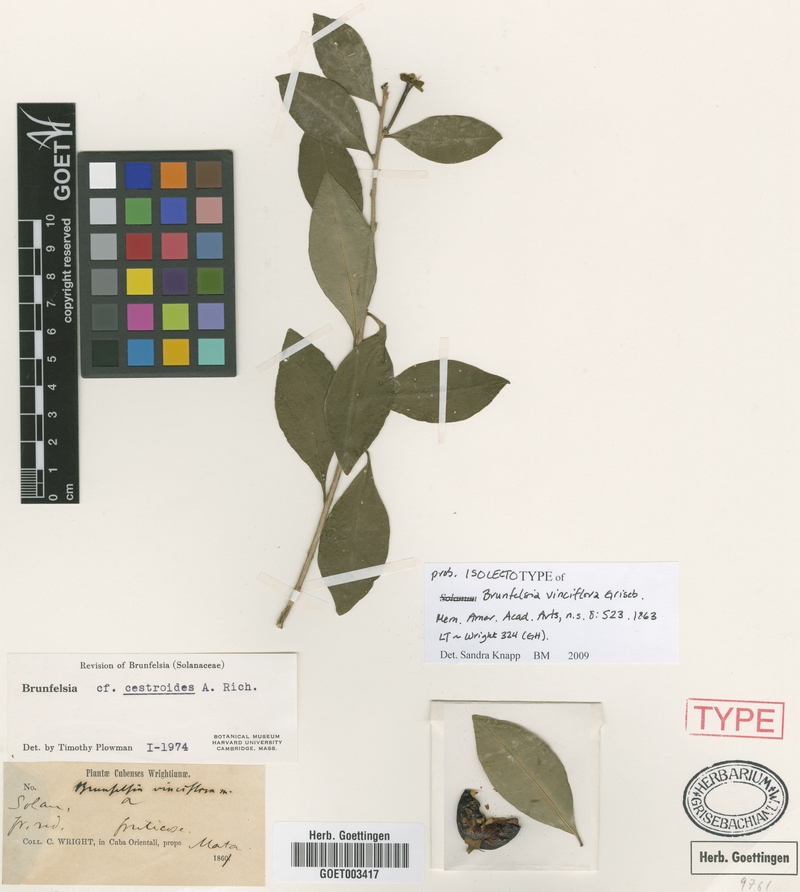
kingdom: Plantae
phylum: Tracheophyta
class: Magnoliopsida
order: Solanales
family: Solanaceae
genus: Brunfelsia
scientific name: Brunfelsia cestroides
